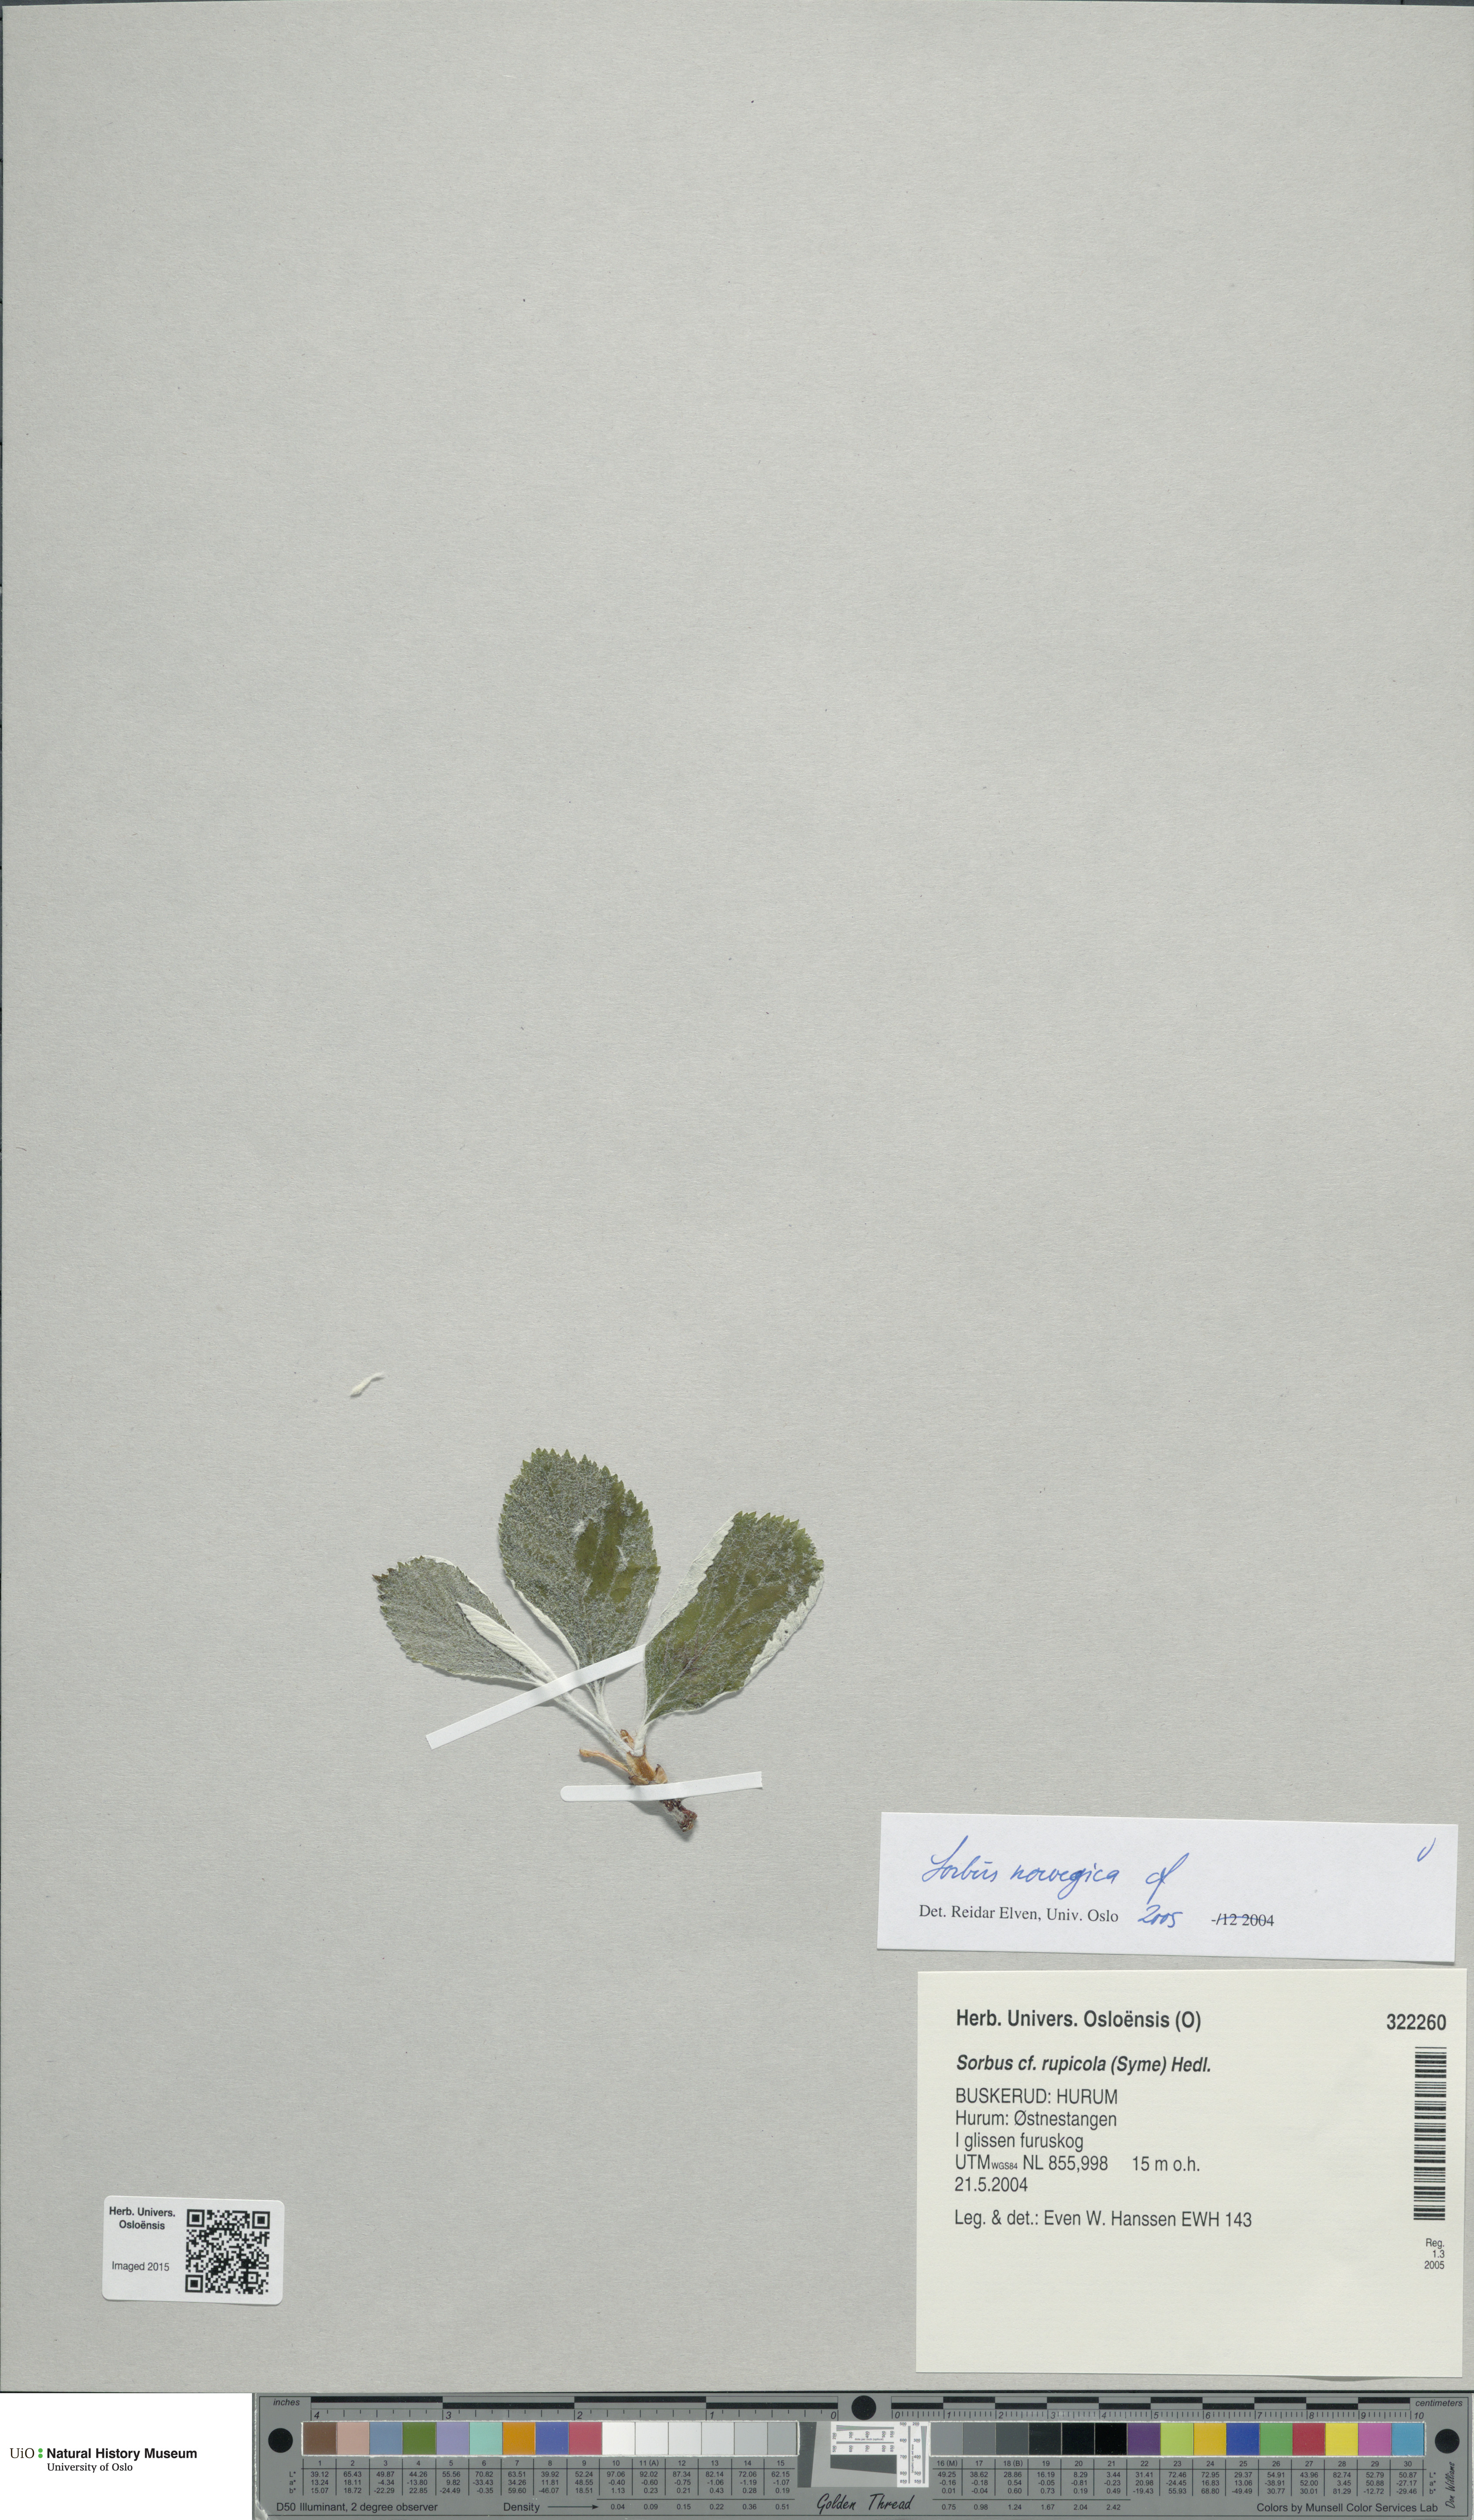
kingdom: Plantae
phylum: Tracheophyta
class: Magnoliopsida
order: Rosales
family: Rosaceae
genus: Aria
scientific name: Aria obtusifolia
